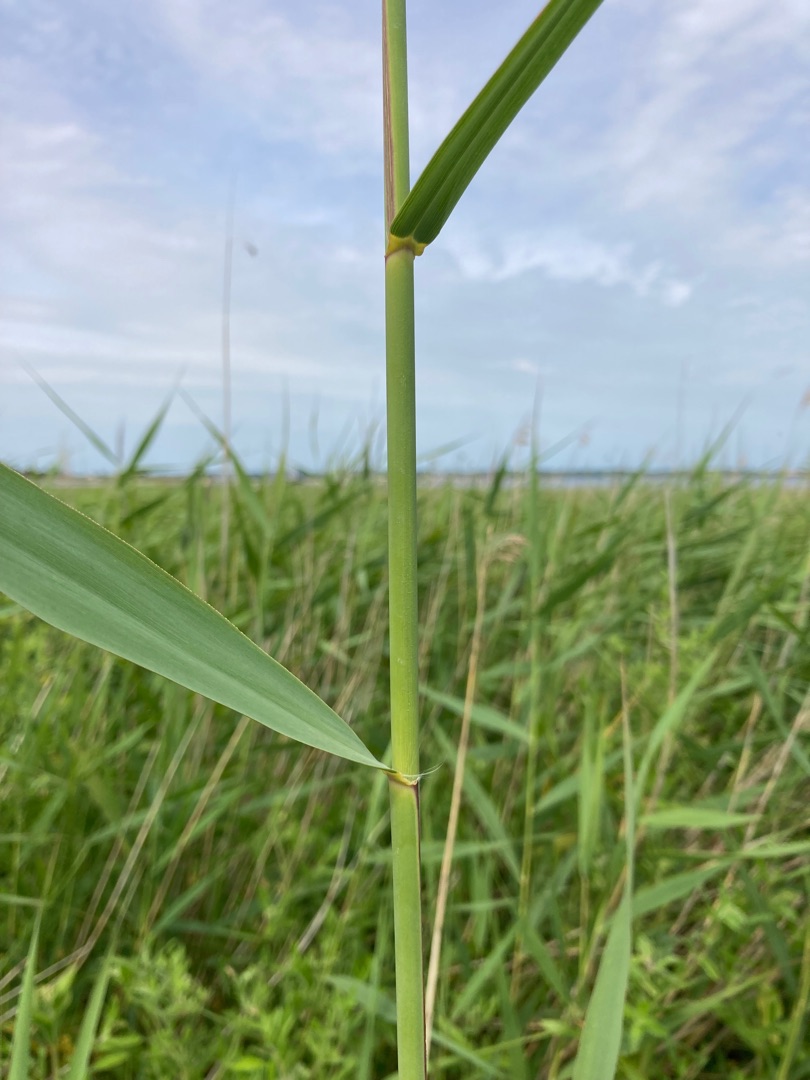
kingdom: Plantae
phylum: Tracheophyta
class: Liliopsida
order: Poales
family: Poaceae
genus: Phragmites
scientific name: Phragmites australis
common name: Tagrør
